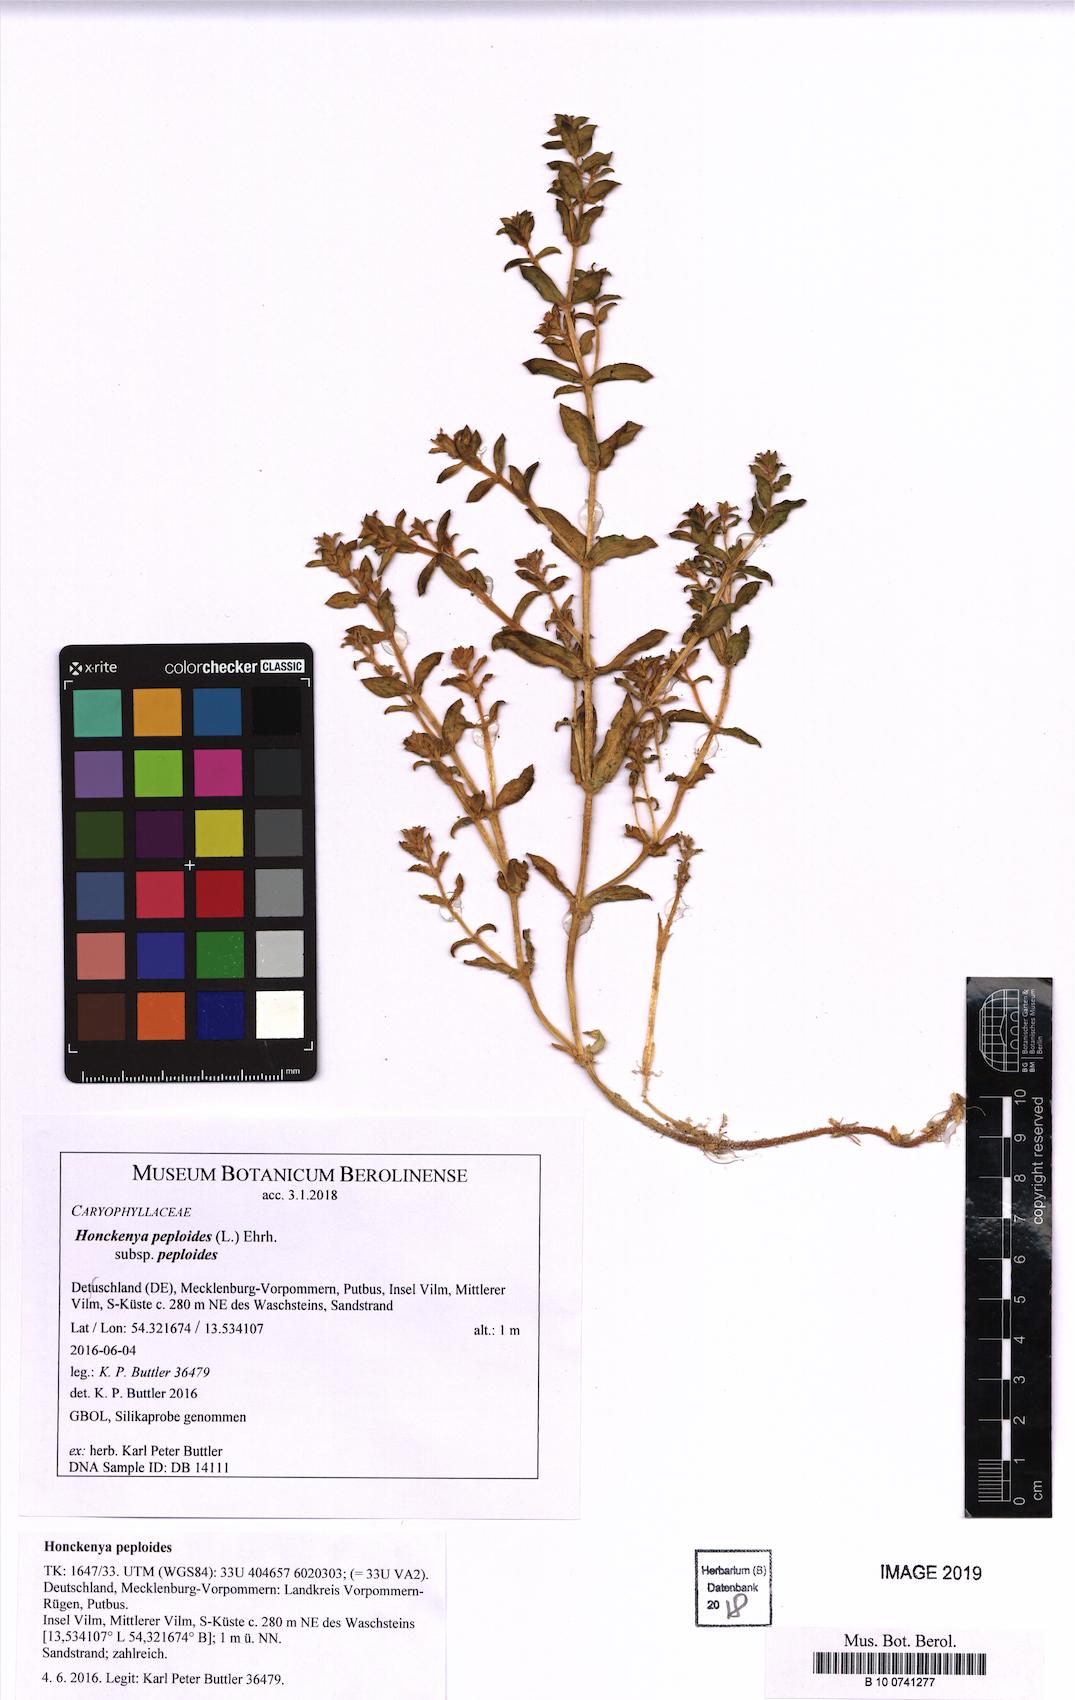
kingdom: Plantae
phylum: Tracheophyta
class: Magnoliopsida
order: Caryophyllales
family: Caryophyllaceae
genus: Honckenya
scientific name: Honckenya peploides
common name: Sea sandwort
